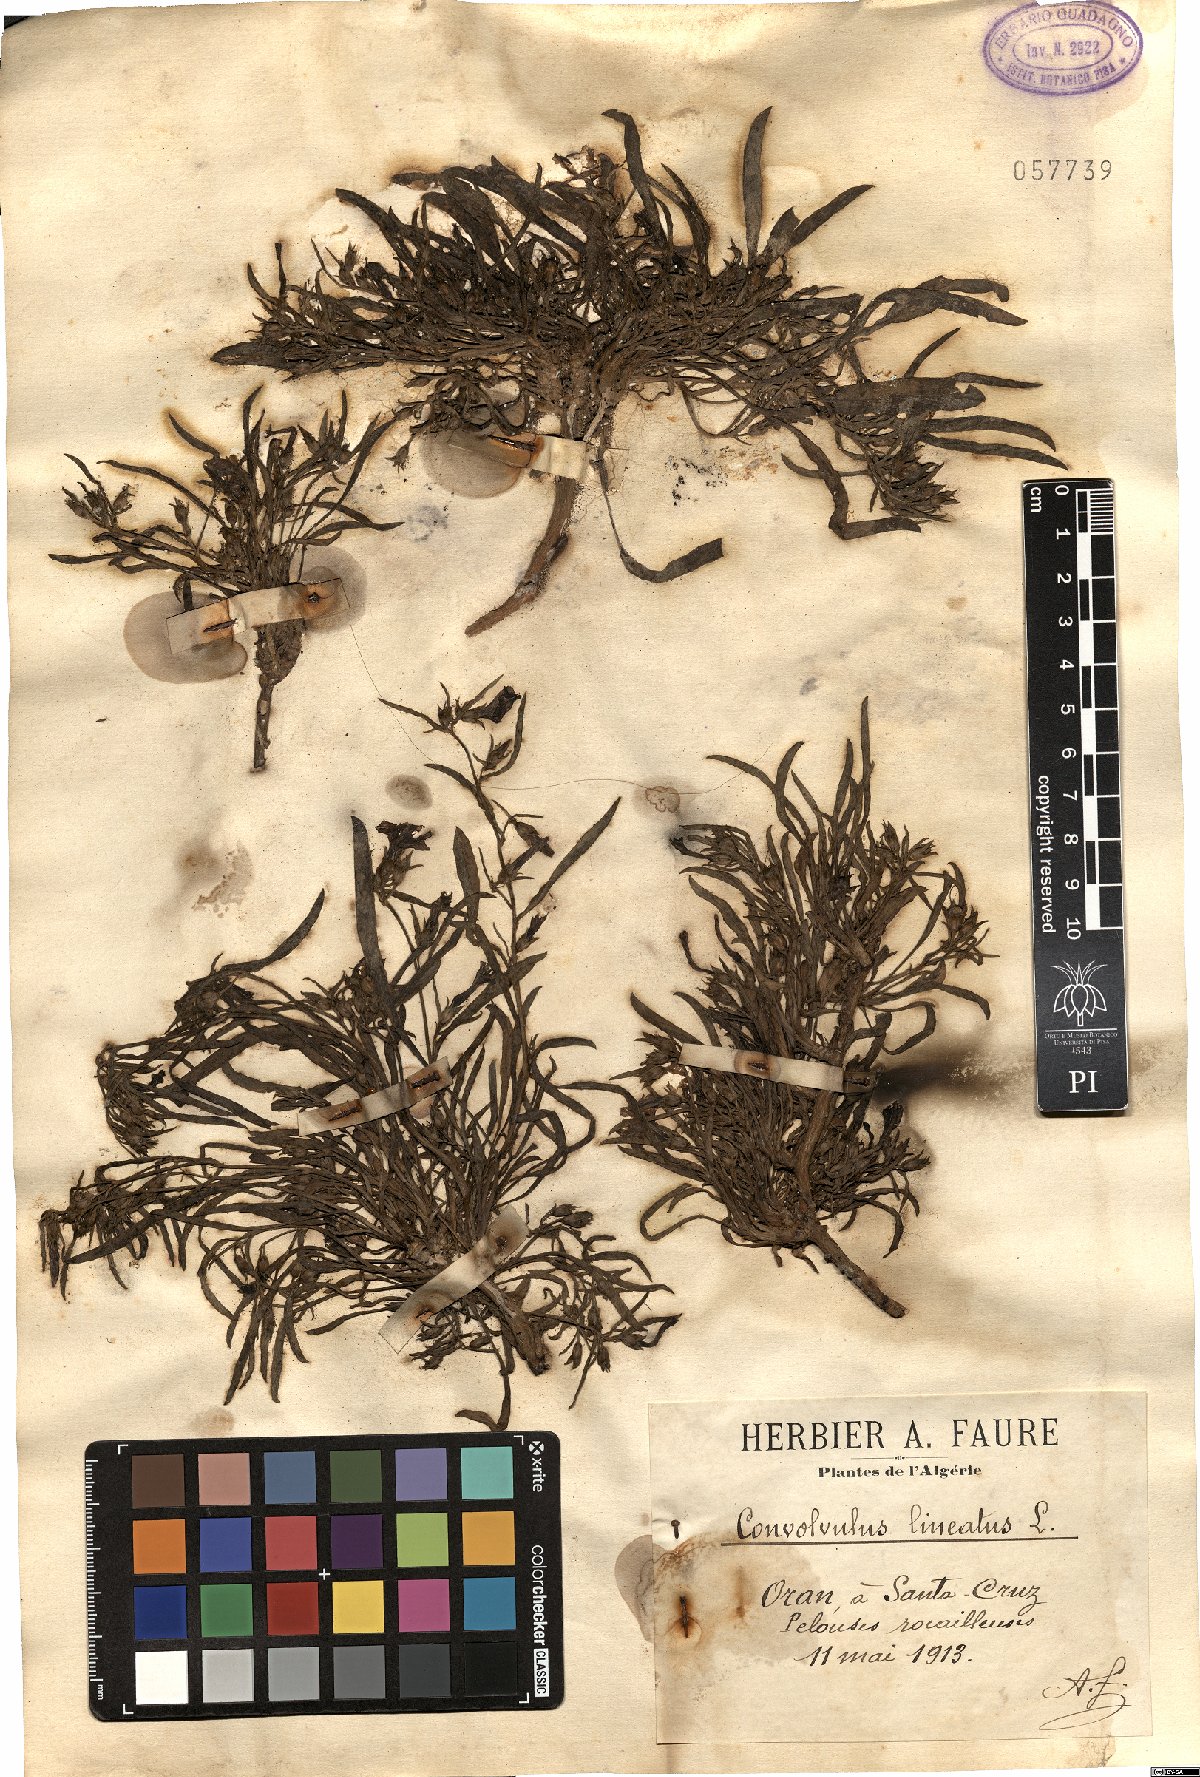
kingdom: Plantae
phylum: Tracheophyta
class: Magnoliopsida
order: Solanales
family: Convolvulaceae
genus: Convolvulus
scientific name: Convolvulus lineatus
